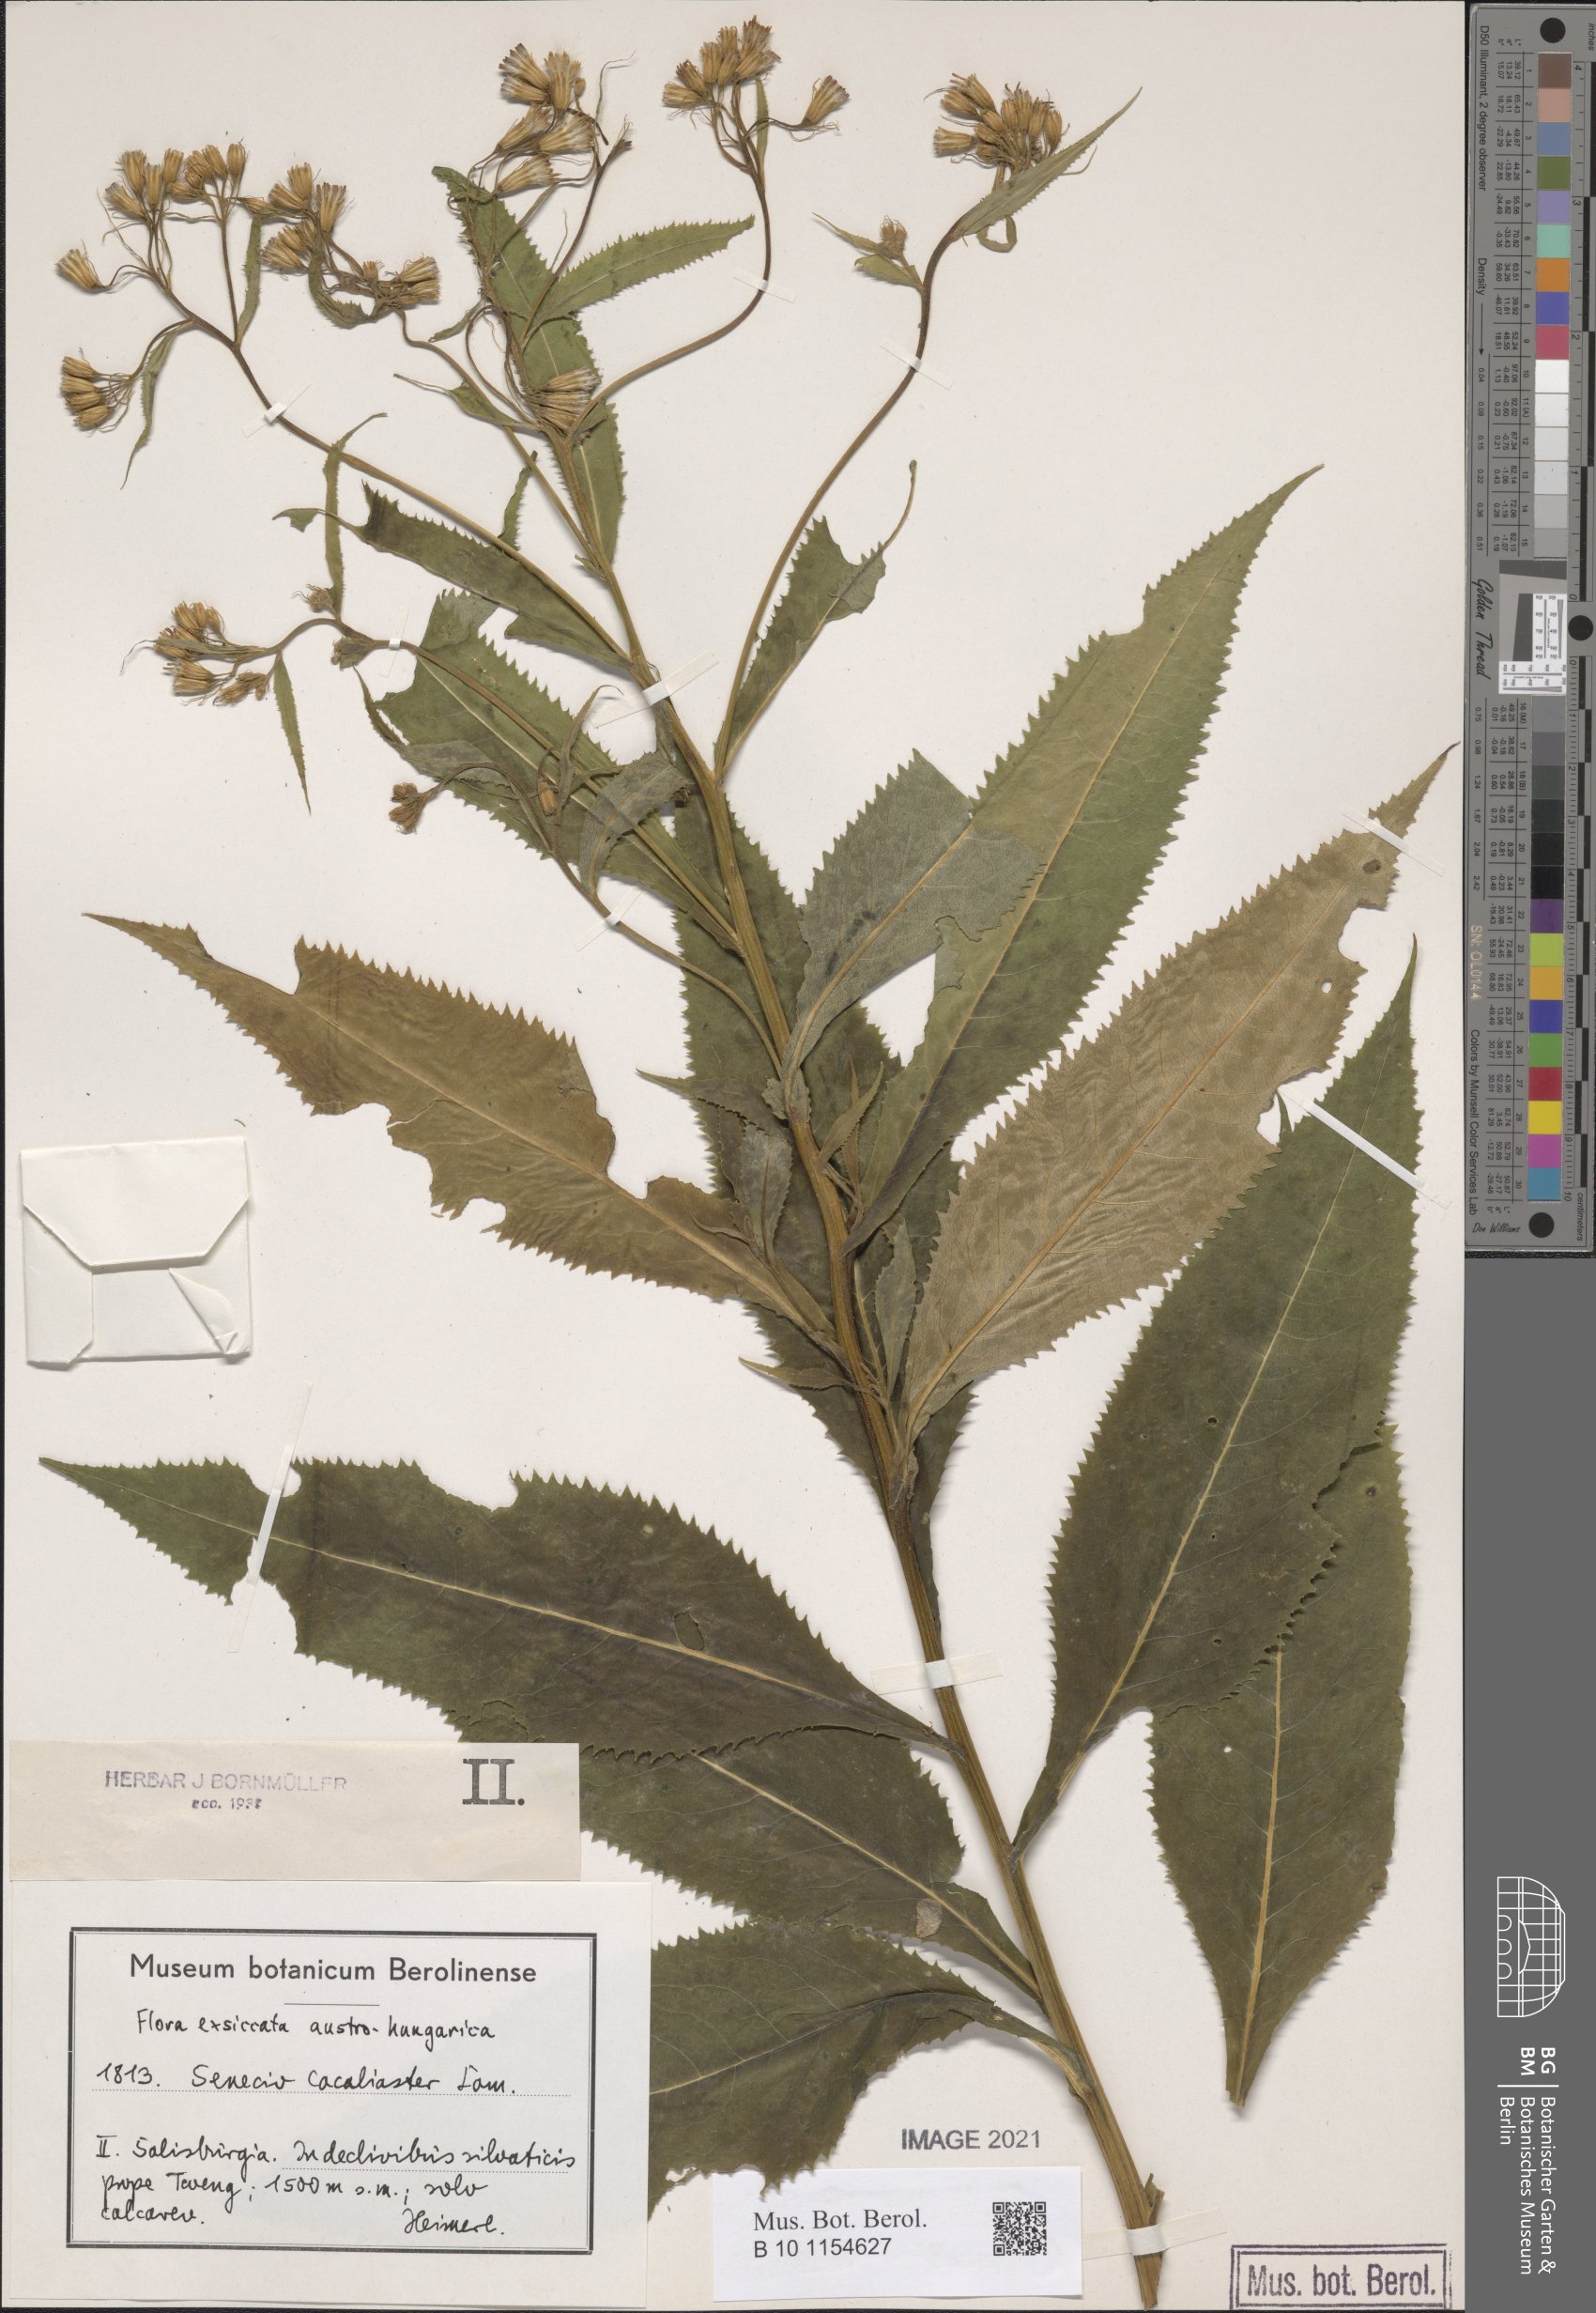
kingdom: Plantae
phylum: Tracheophyta
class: Magnoliopsida
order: Asterales
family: Asteraceae
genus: Senecio
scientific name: Senecio cacaliaster
